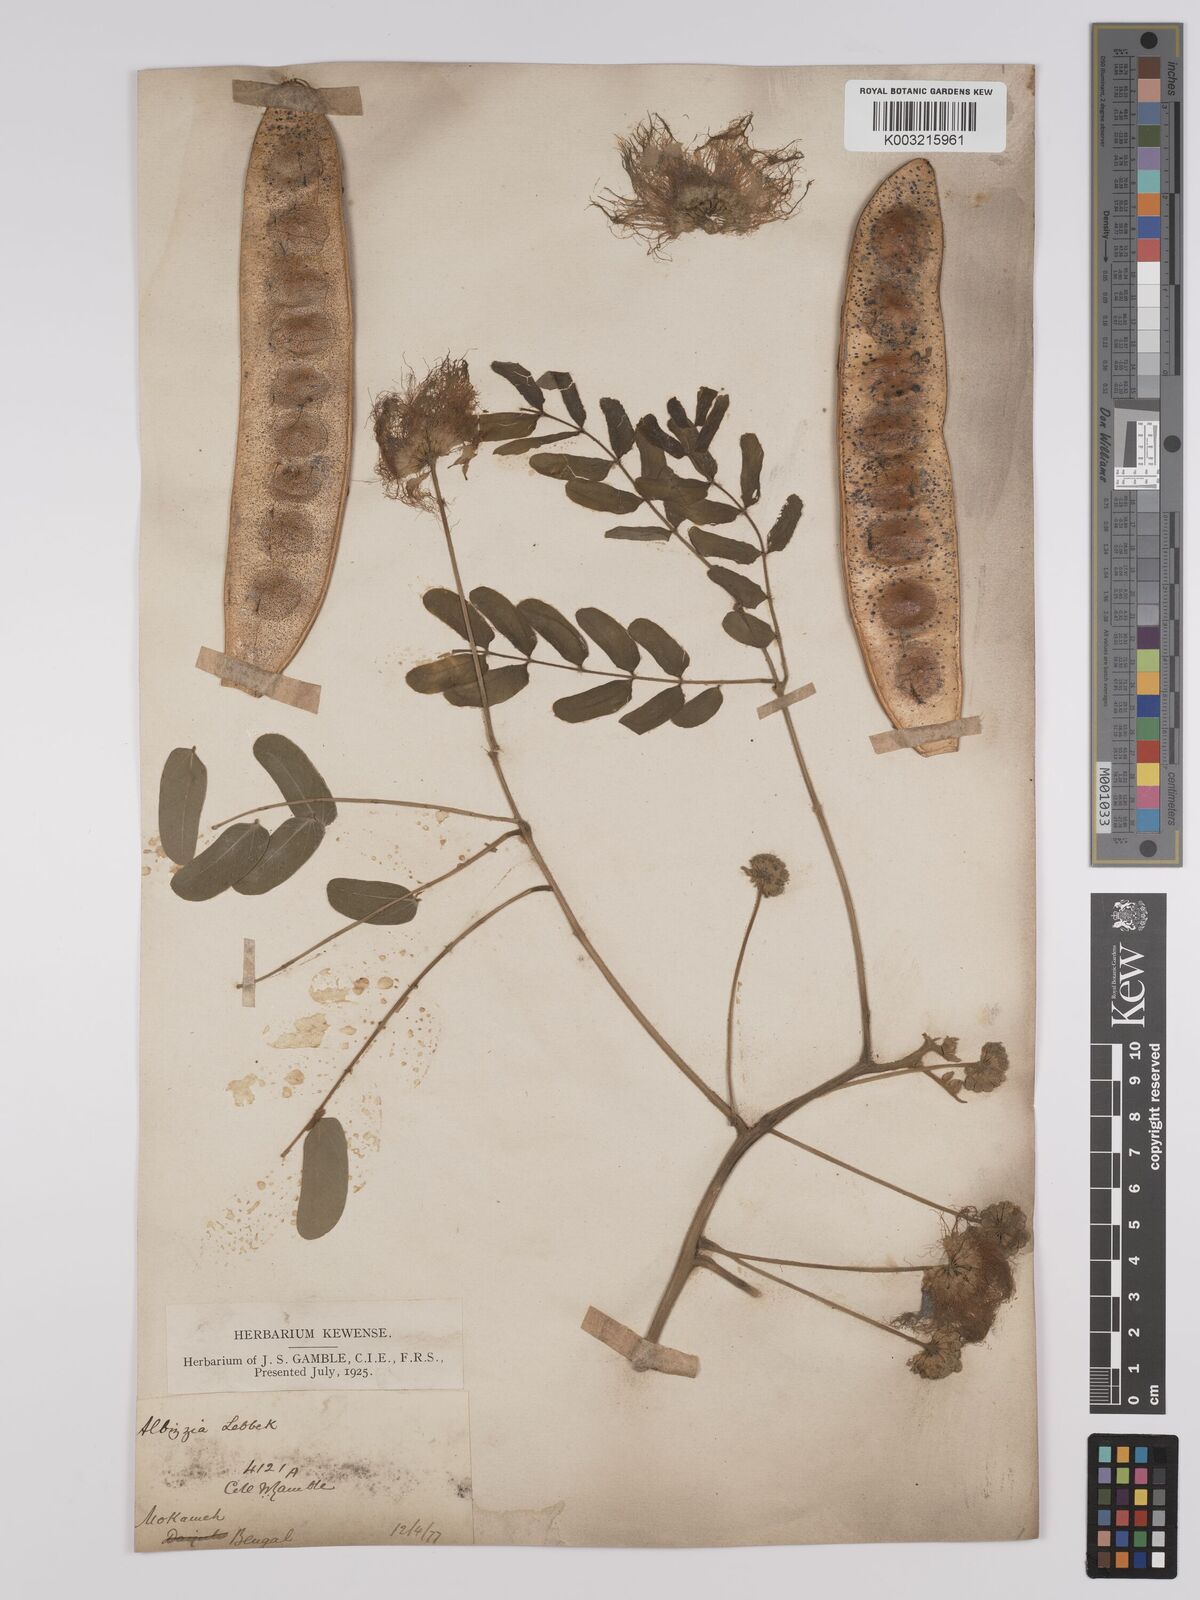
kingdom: Plantae
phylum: Tracheophyta
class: Magnoliopsida
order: Fabales
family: Fabaceae
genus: Albizia
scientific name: Albizia lebbeck
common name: Woman's tongue
